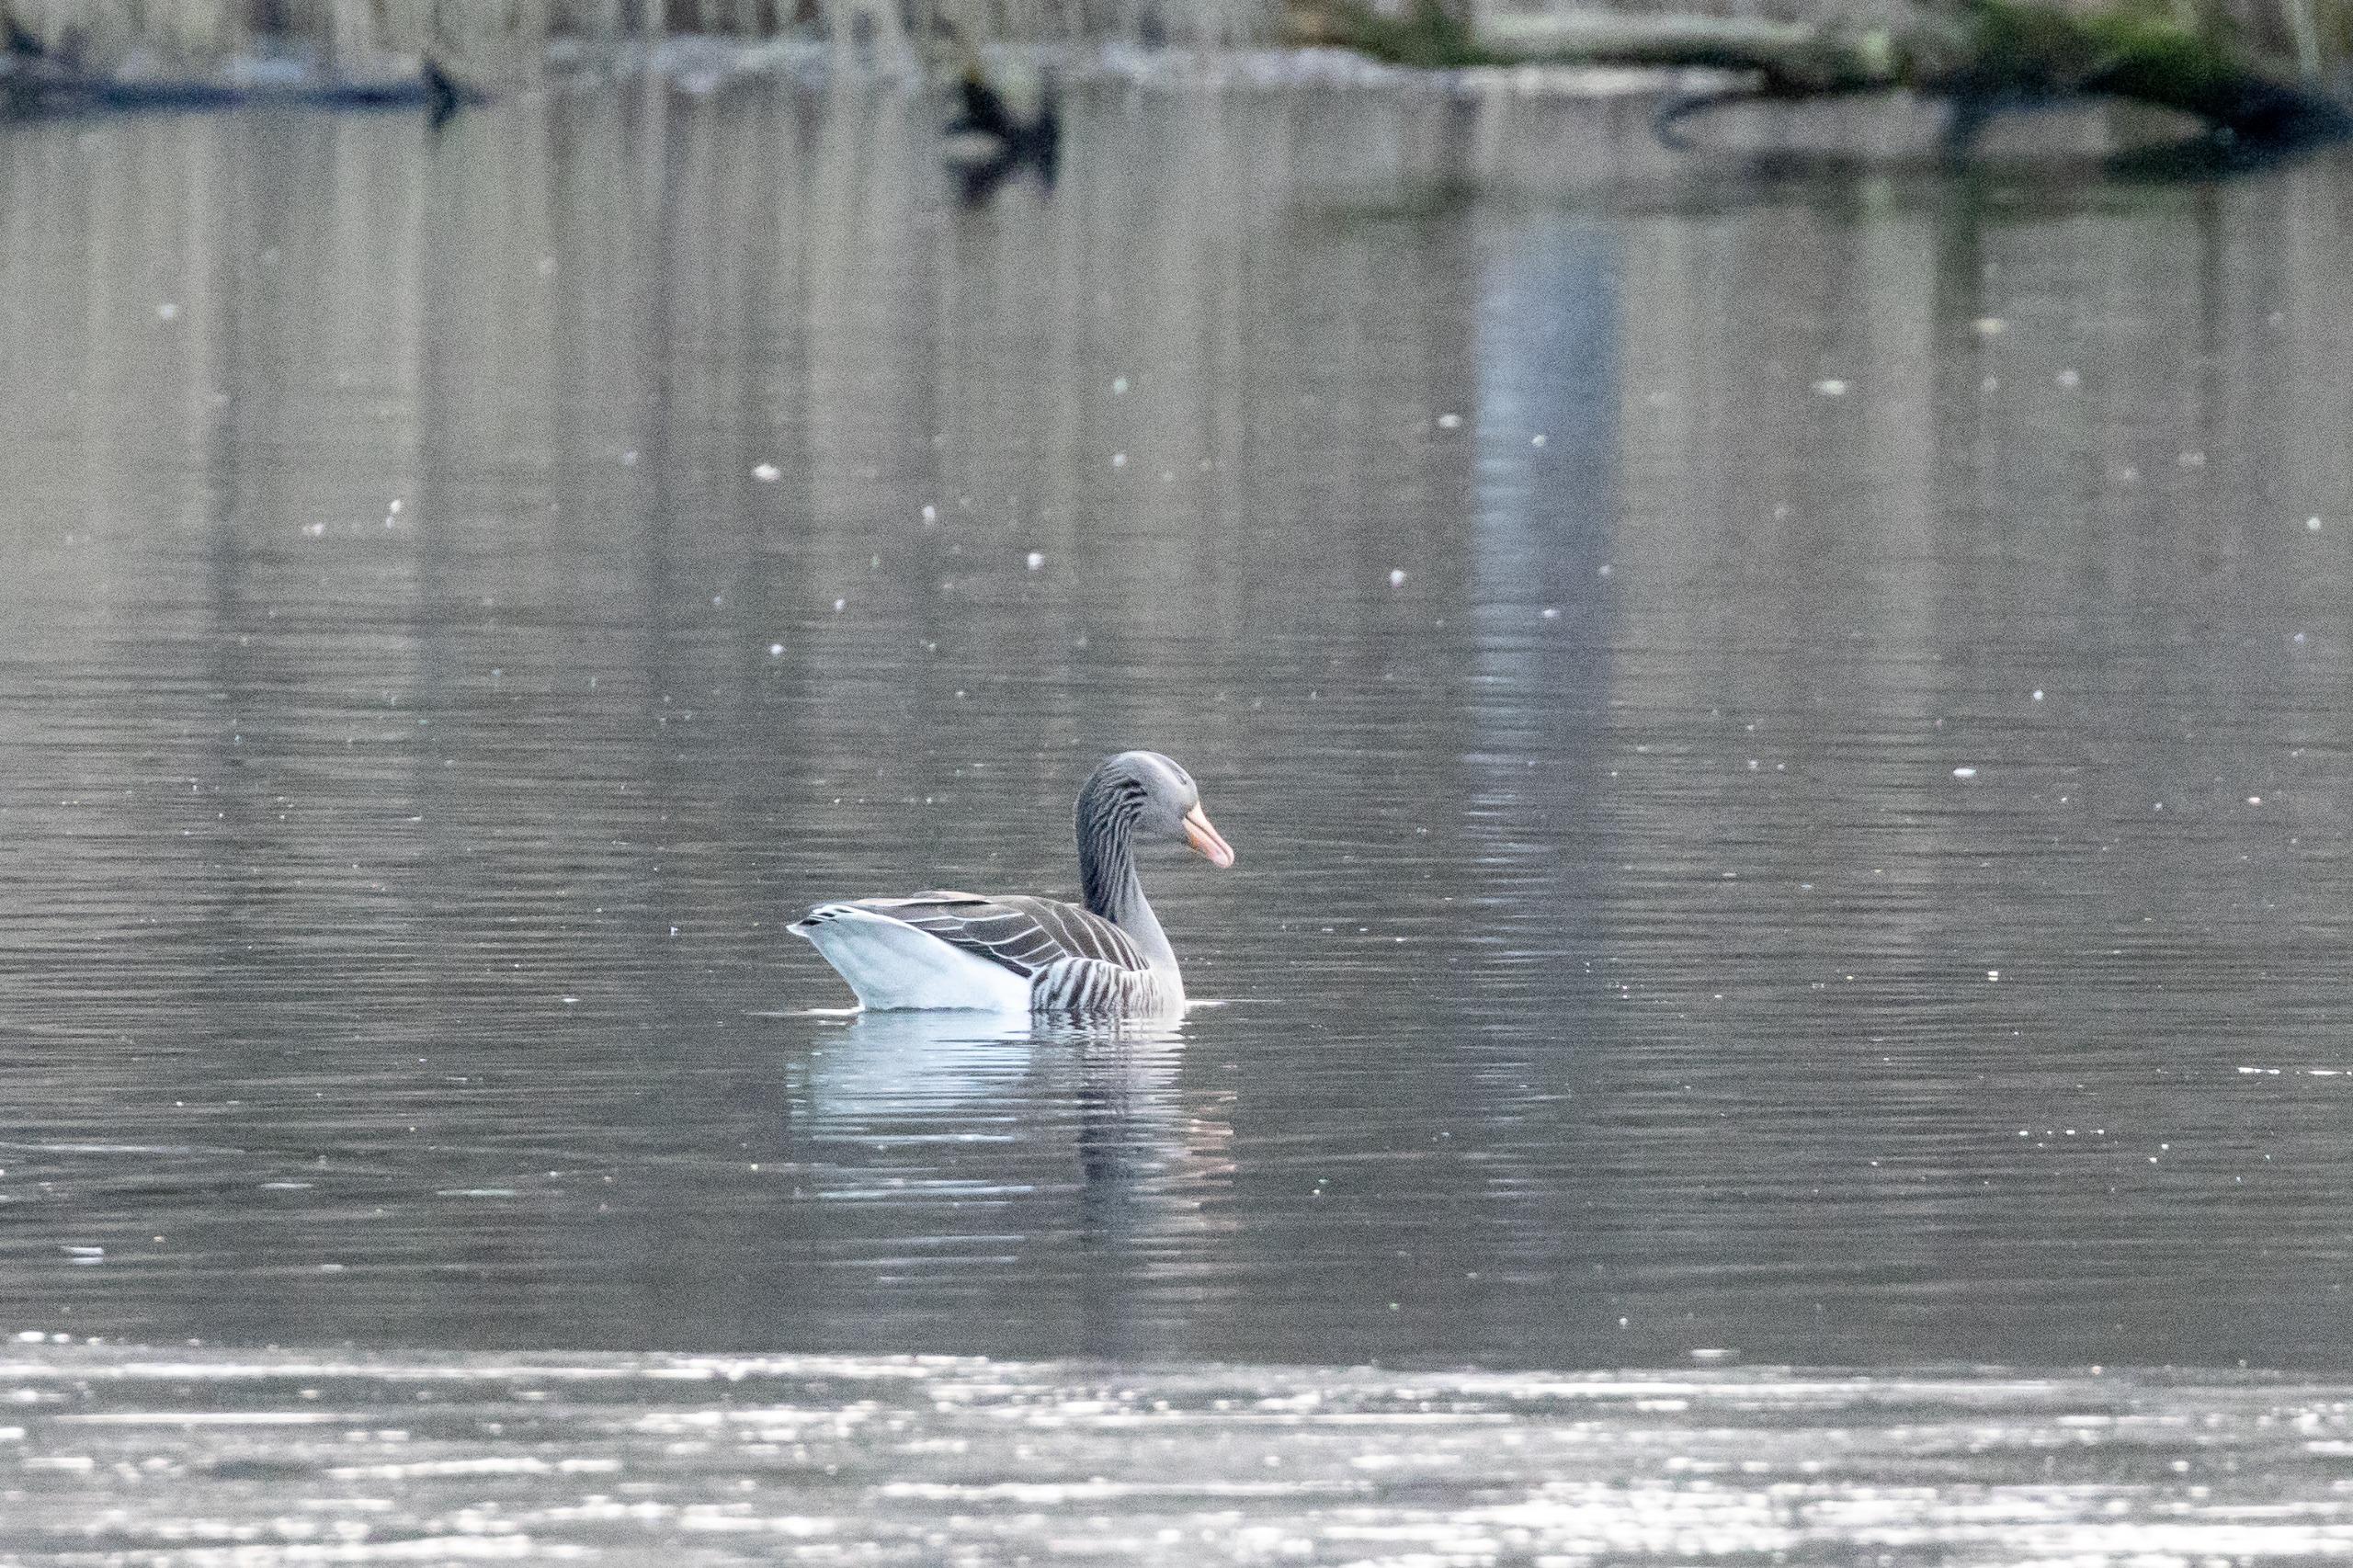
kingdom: Animalia
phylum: Chordata
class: Aves
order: Anseriformes
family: Anatidae
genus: Anser
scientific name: Anser anser
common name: Grågås
